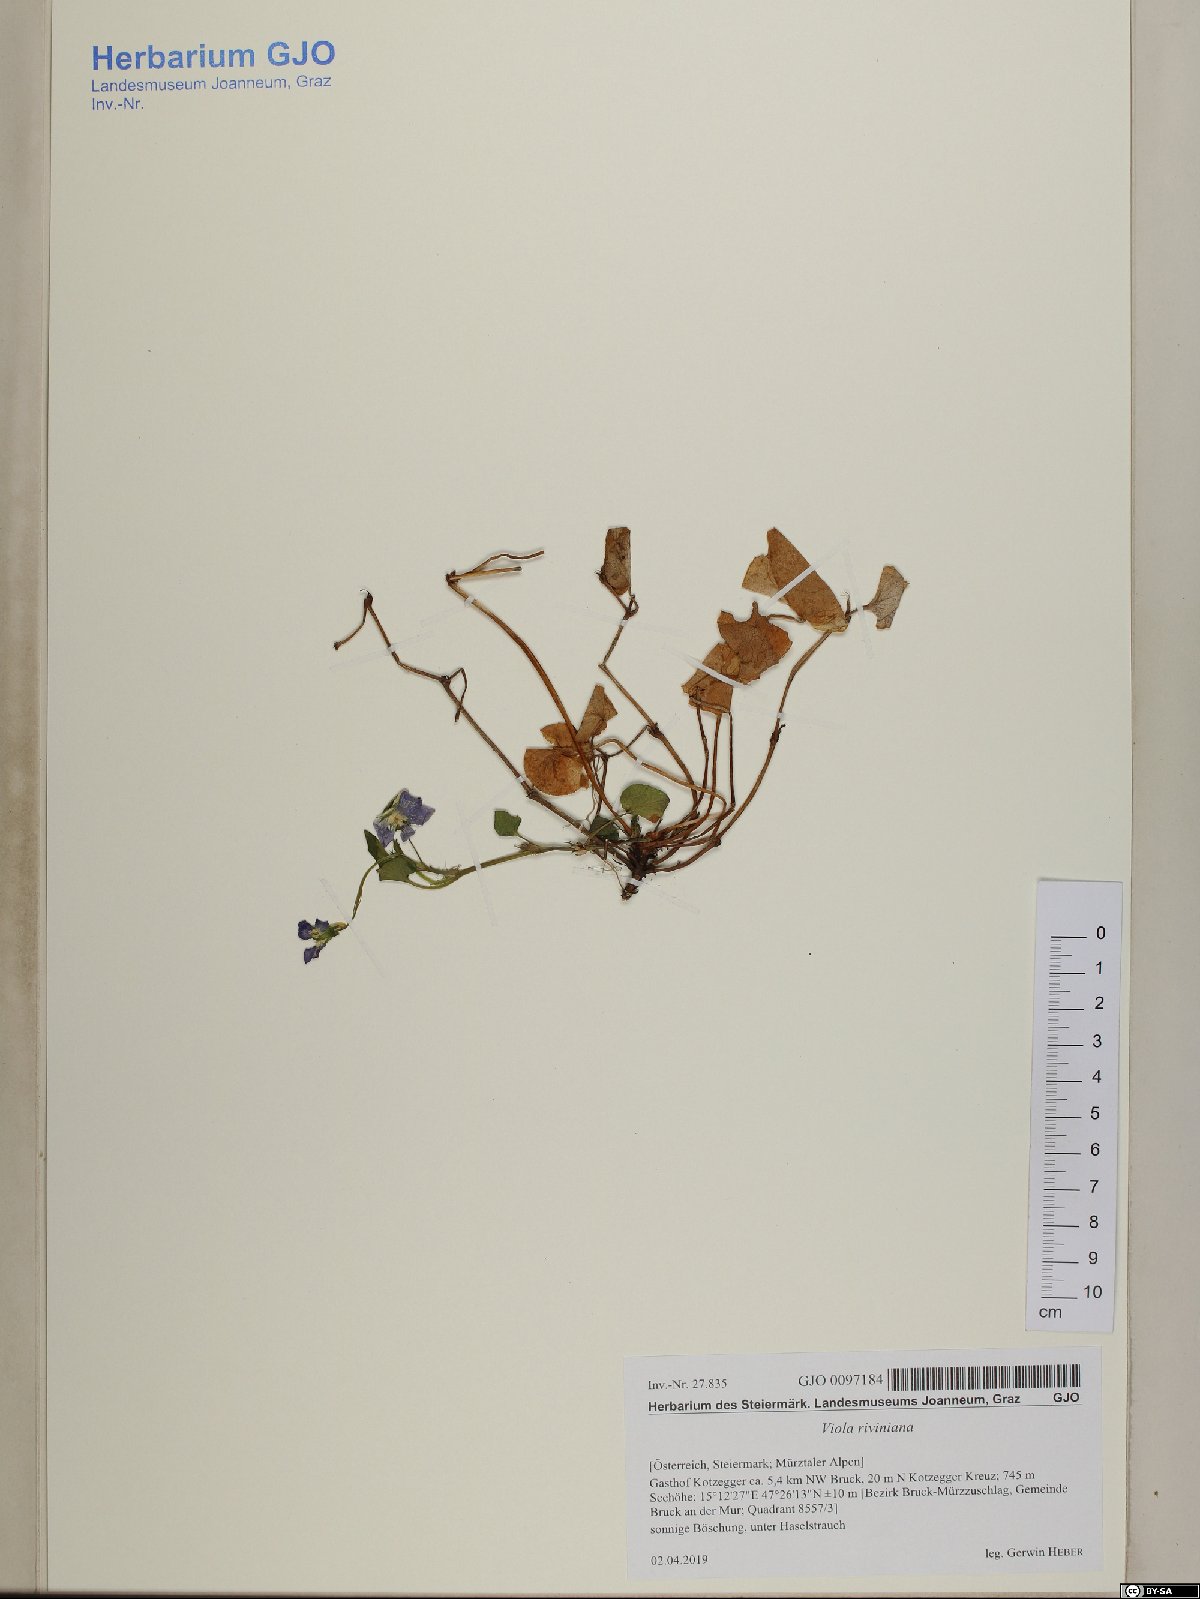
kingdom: Plantae
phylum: Tracheophyta
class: Magnoliopsida
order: Malpighiales
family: Violaceae
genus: Viola
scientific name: Viola riviniana
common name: Common dog-violet
